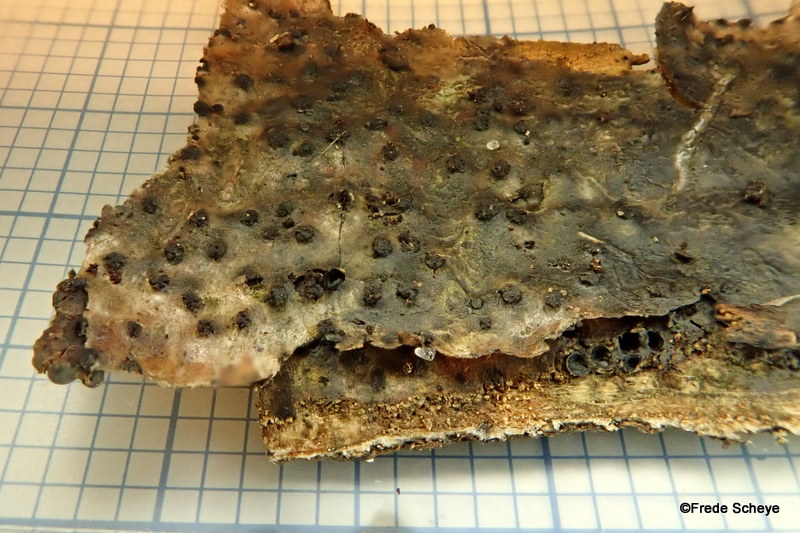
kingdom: Fungi
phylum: Ascomycota
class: Sordariomycetes
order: Xylariales
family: Diatrypaceae
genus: Eutypella
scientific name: Eutypella quaternata
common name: bøge-korsprik
